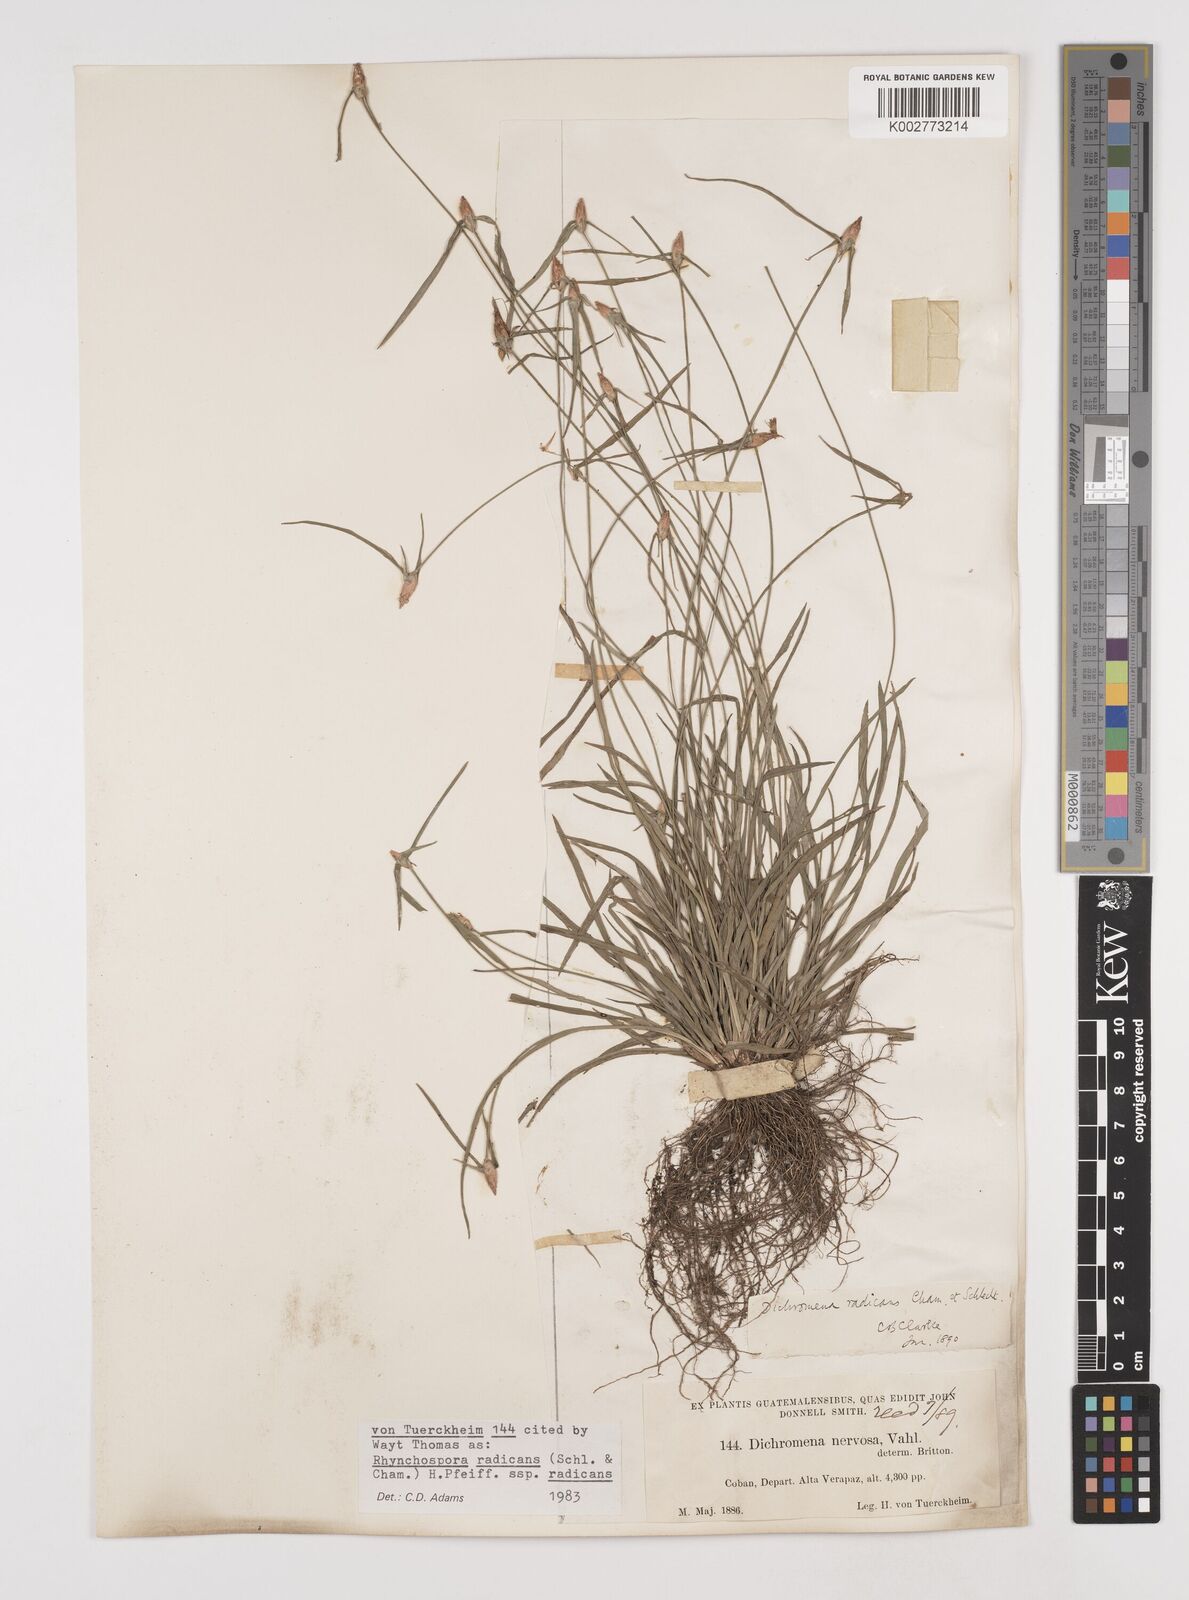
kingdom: Plantae
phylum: Tracheophyta
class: Liliopsida
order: Poales
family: Cyperaceae
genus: Rhynchospora
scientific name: Rhynchospora radicans
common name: Tropical whitetop
